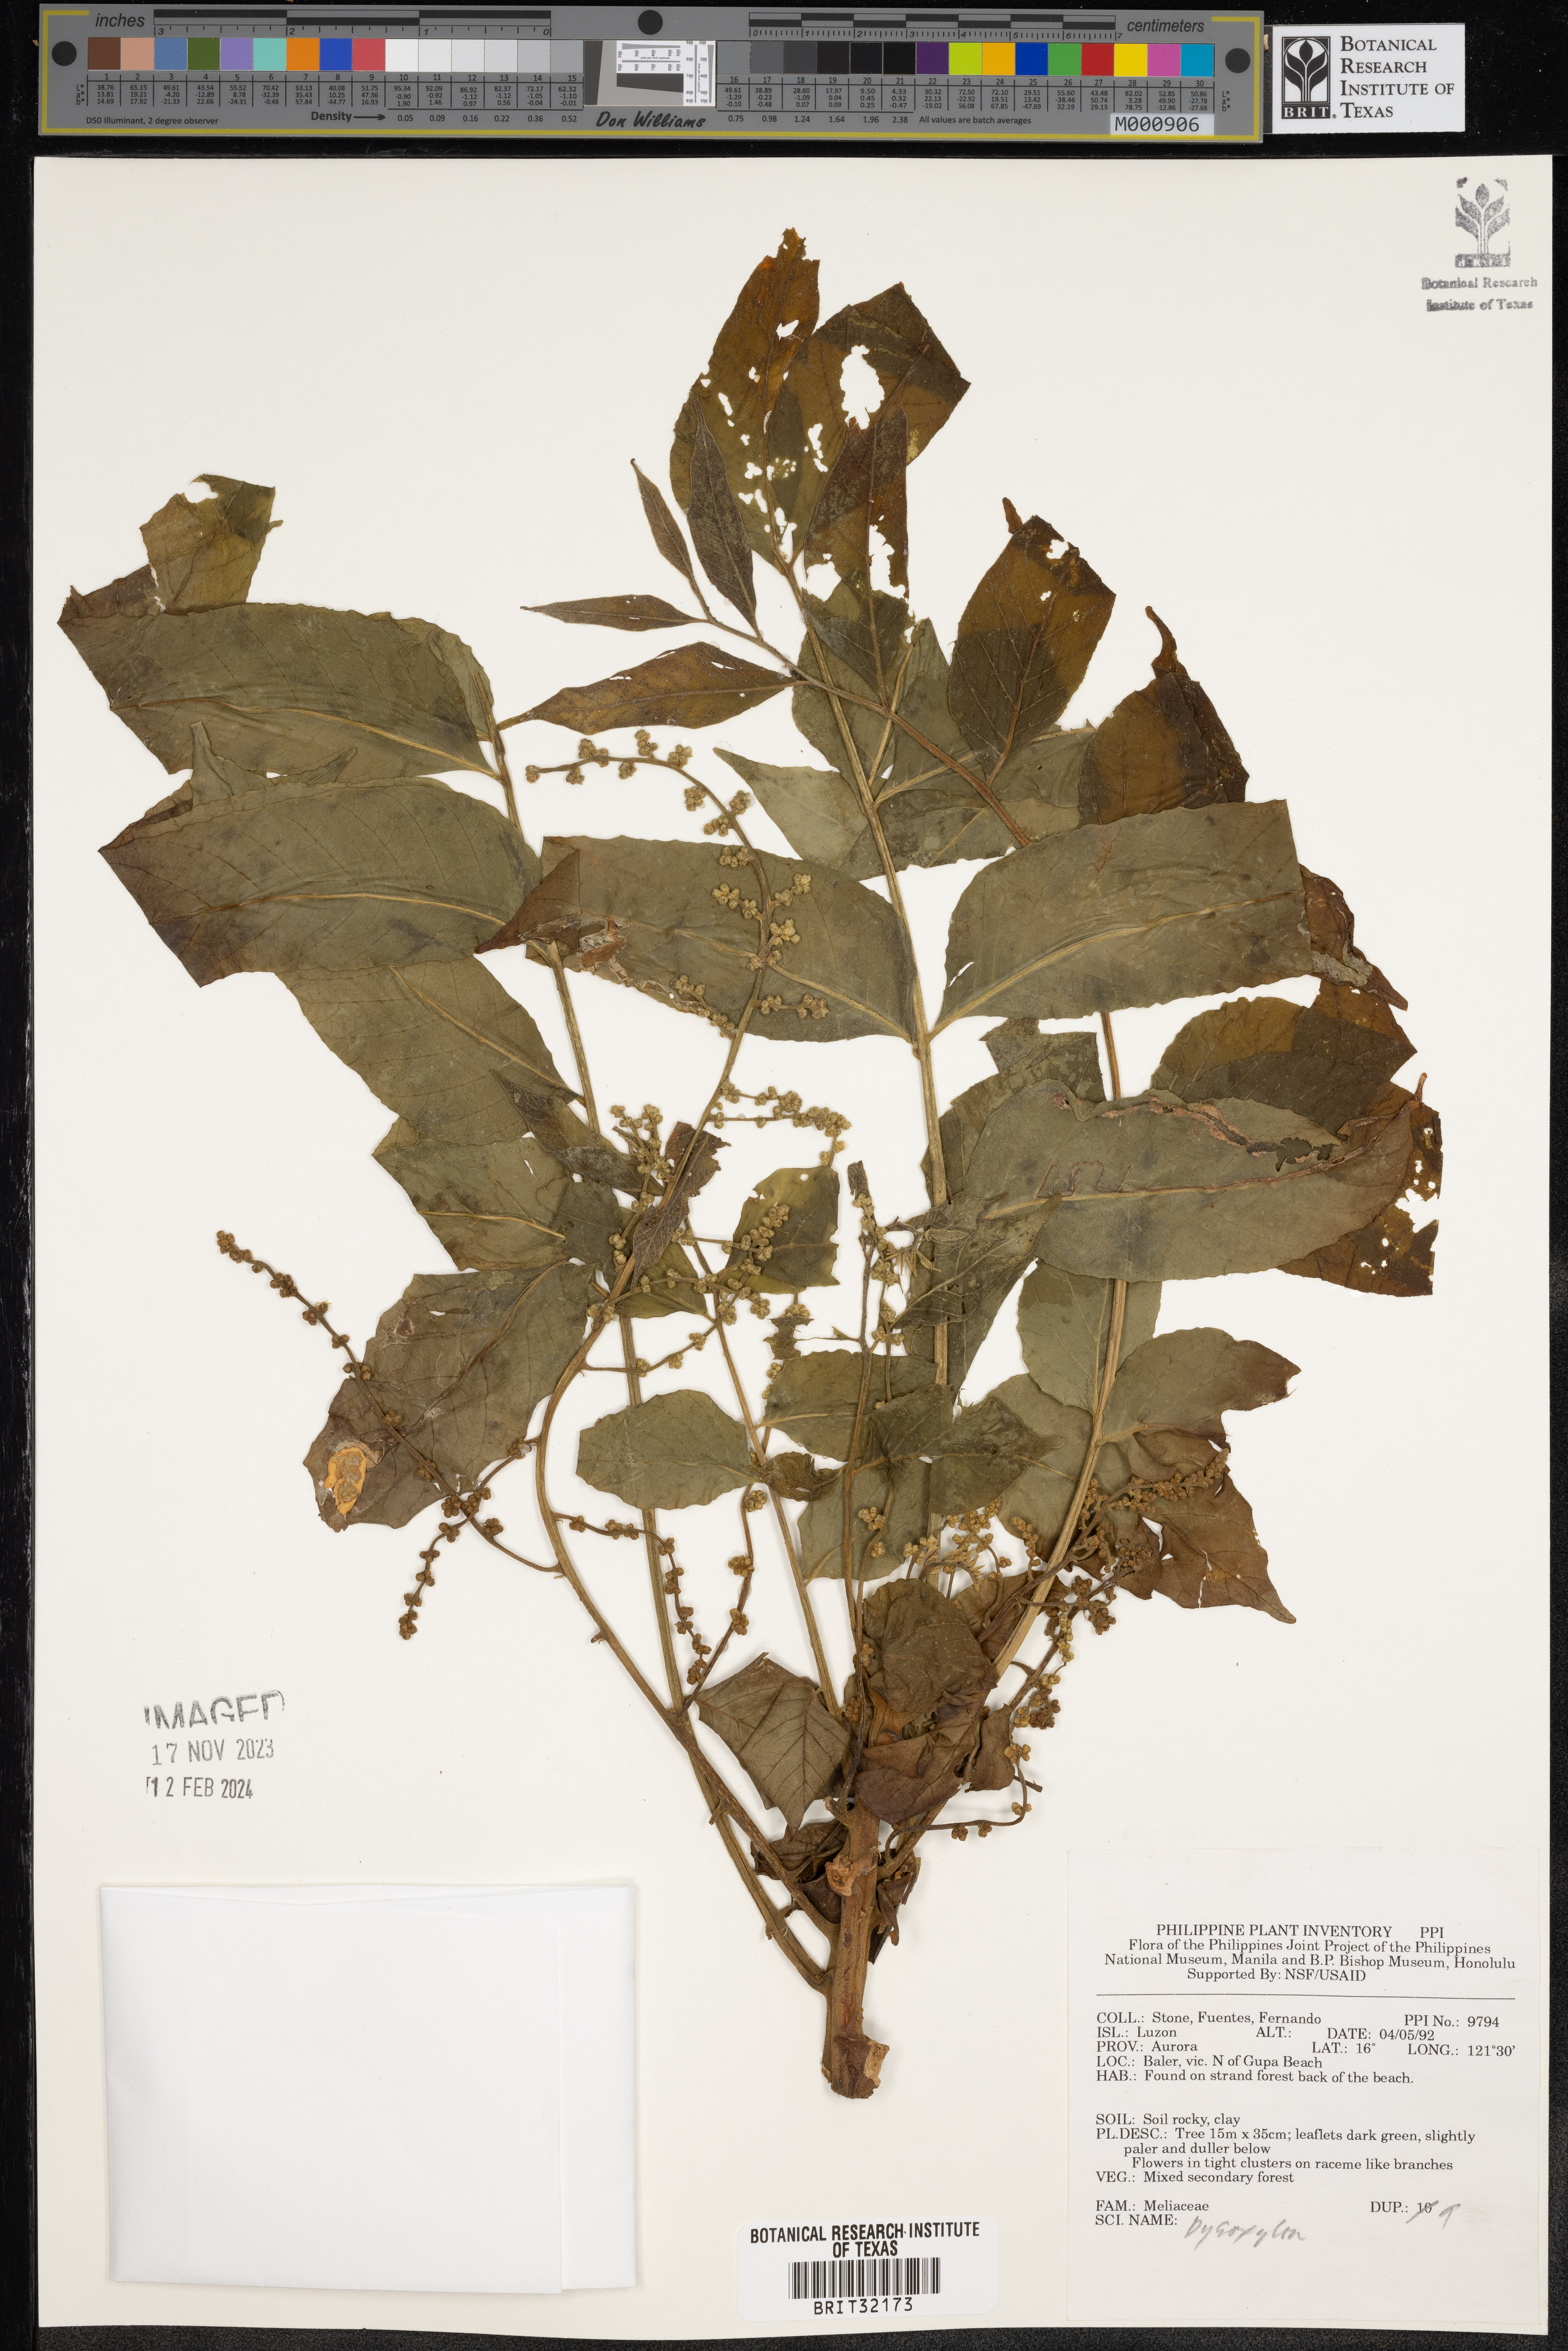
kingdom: Plantae
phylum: Tracheophyta
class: Magnoliopsida
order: Sapindales
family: Meliaceae
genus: Dysoxylum
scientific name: Dysoxylum
